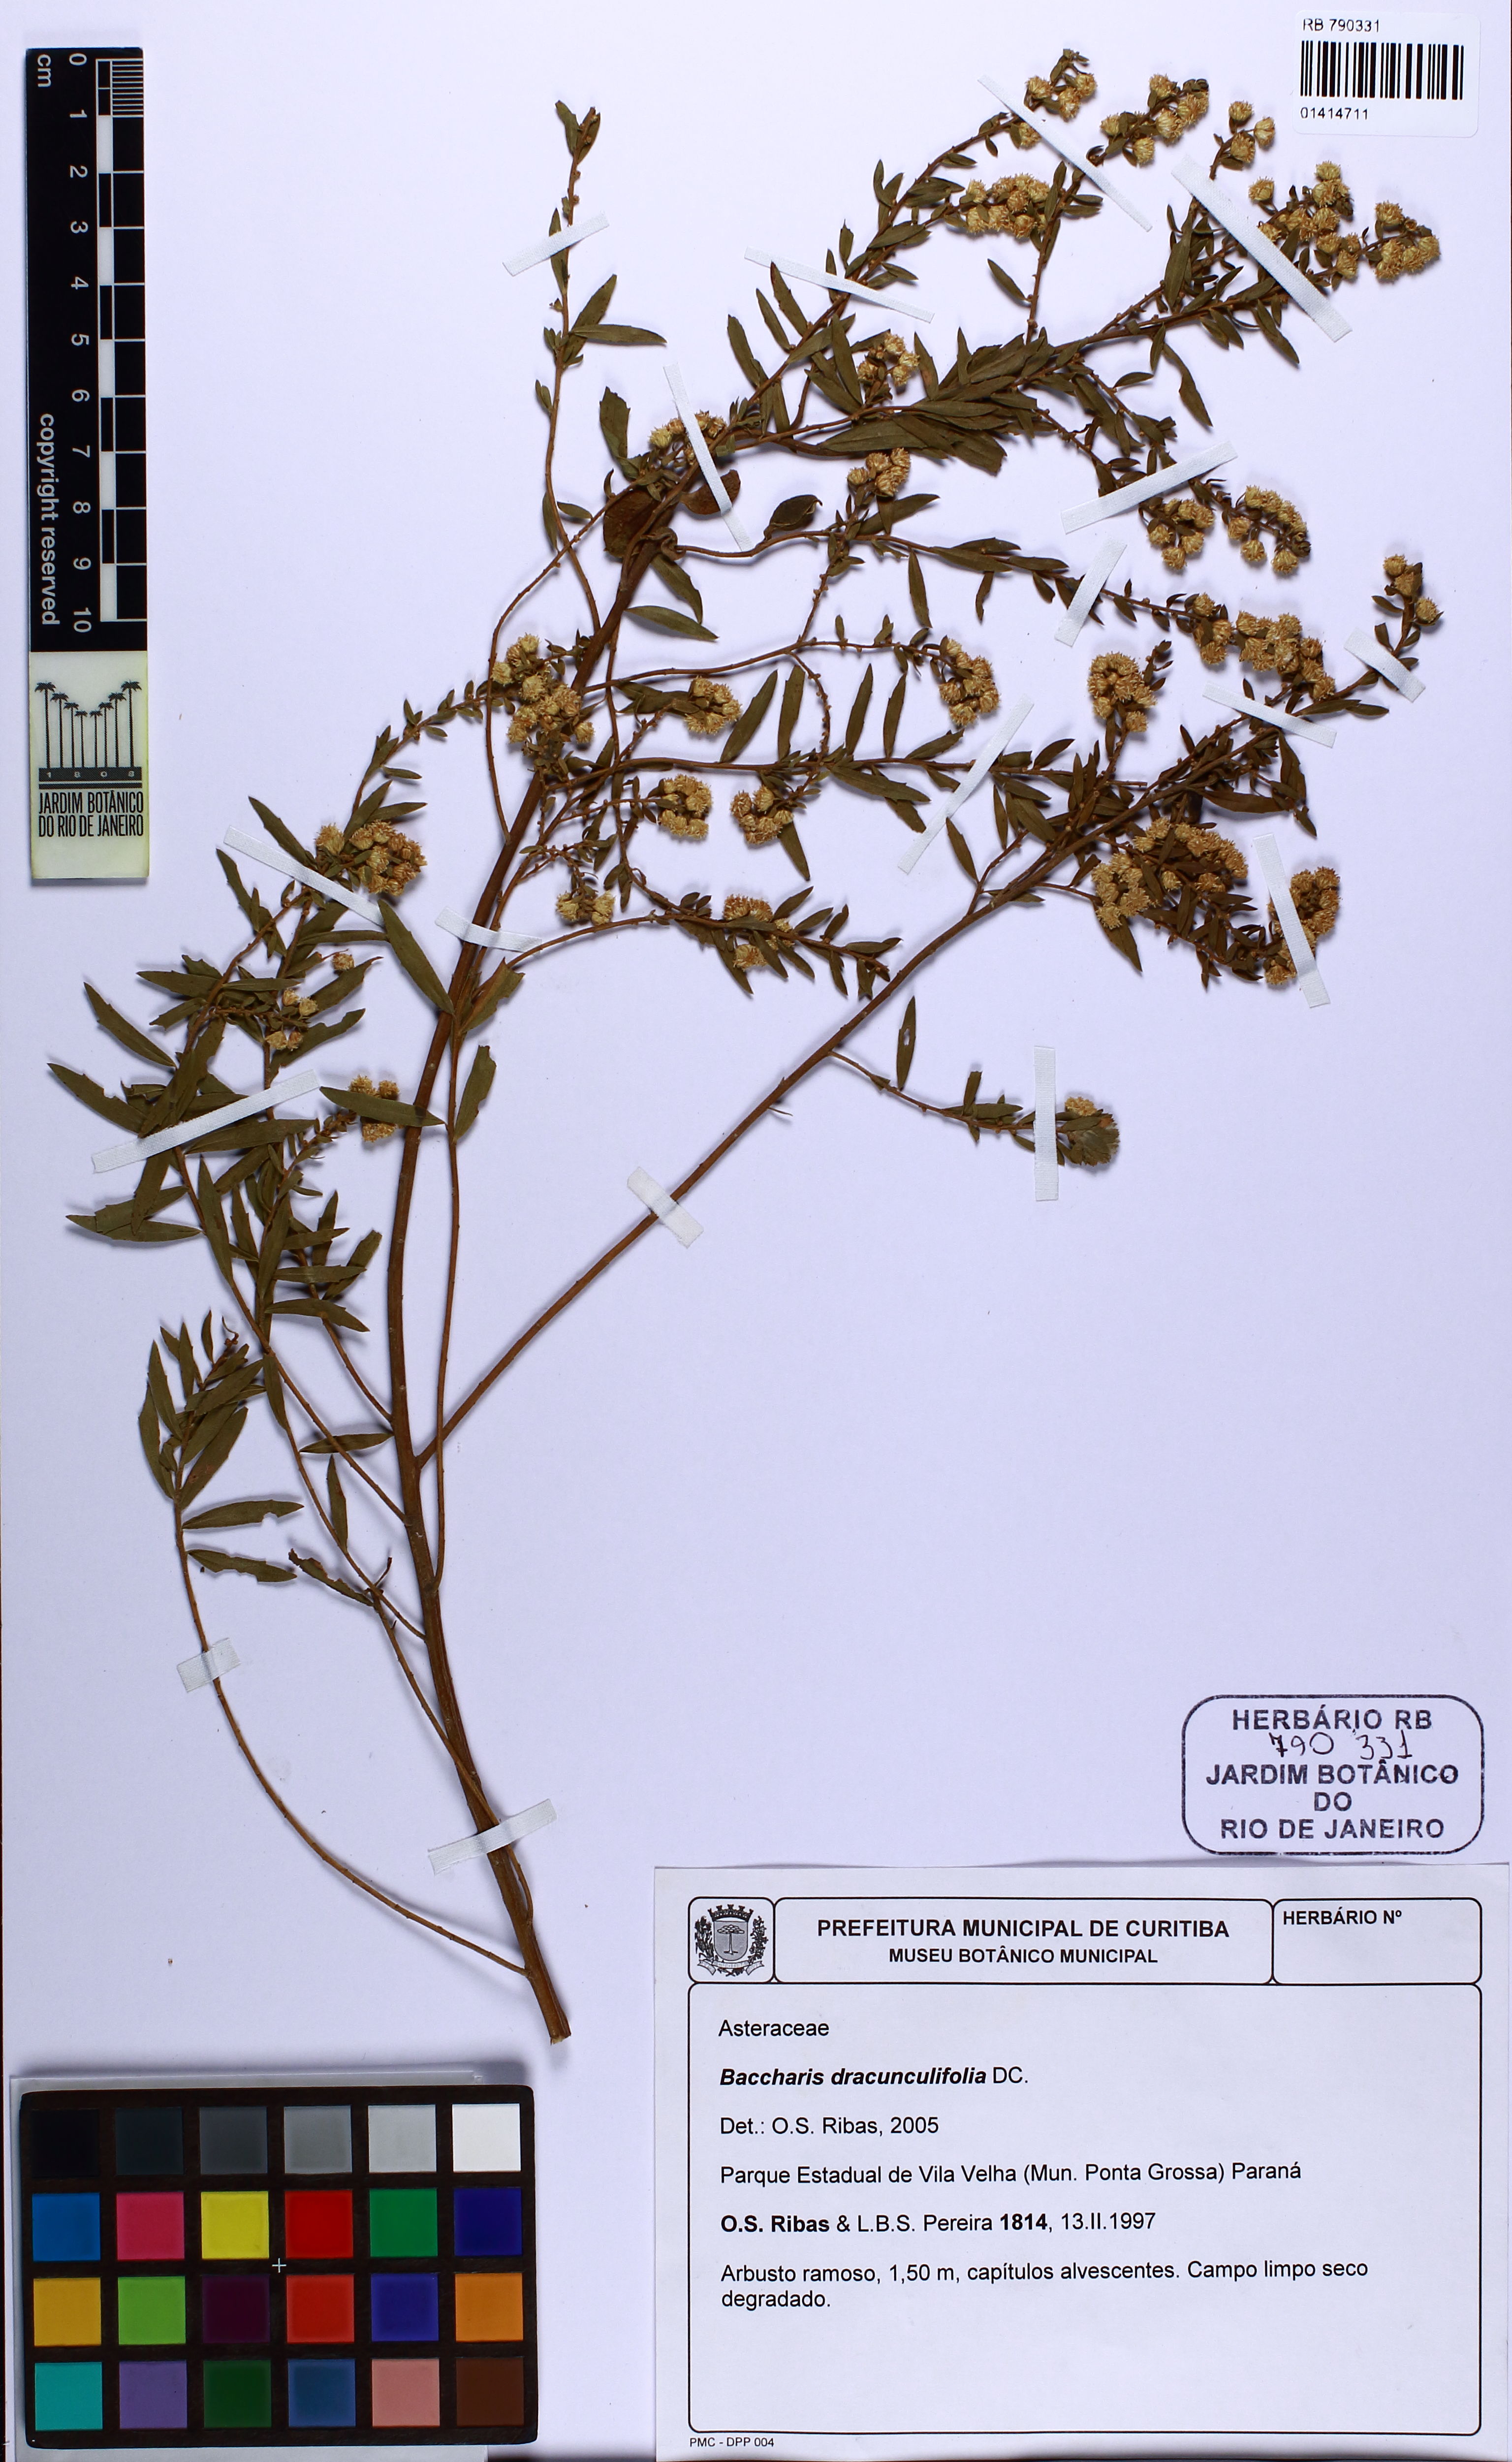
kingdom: Plantae
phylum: Tracheophyta
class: Magnoliopsida
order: Asterales
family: Asteraceae
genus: Baccharis
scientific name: Baccharis dracunculifolia
